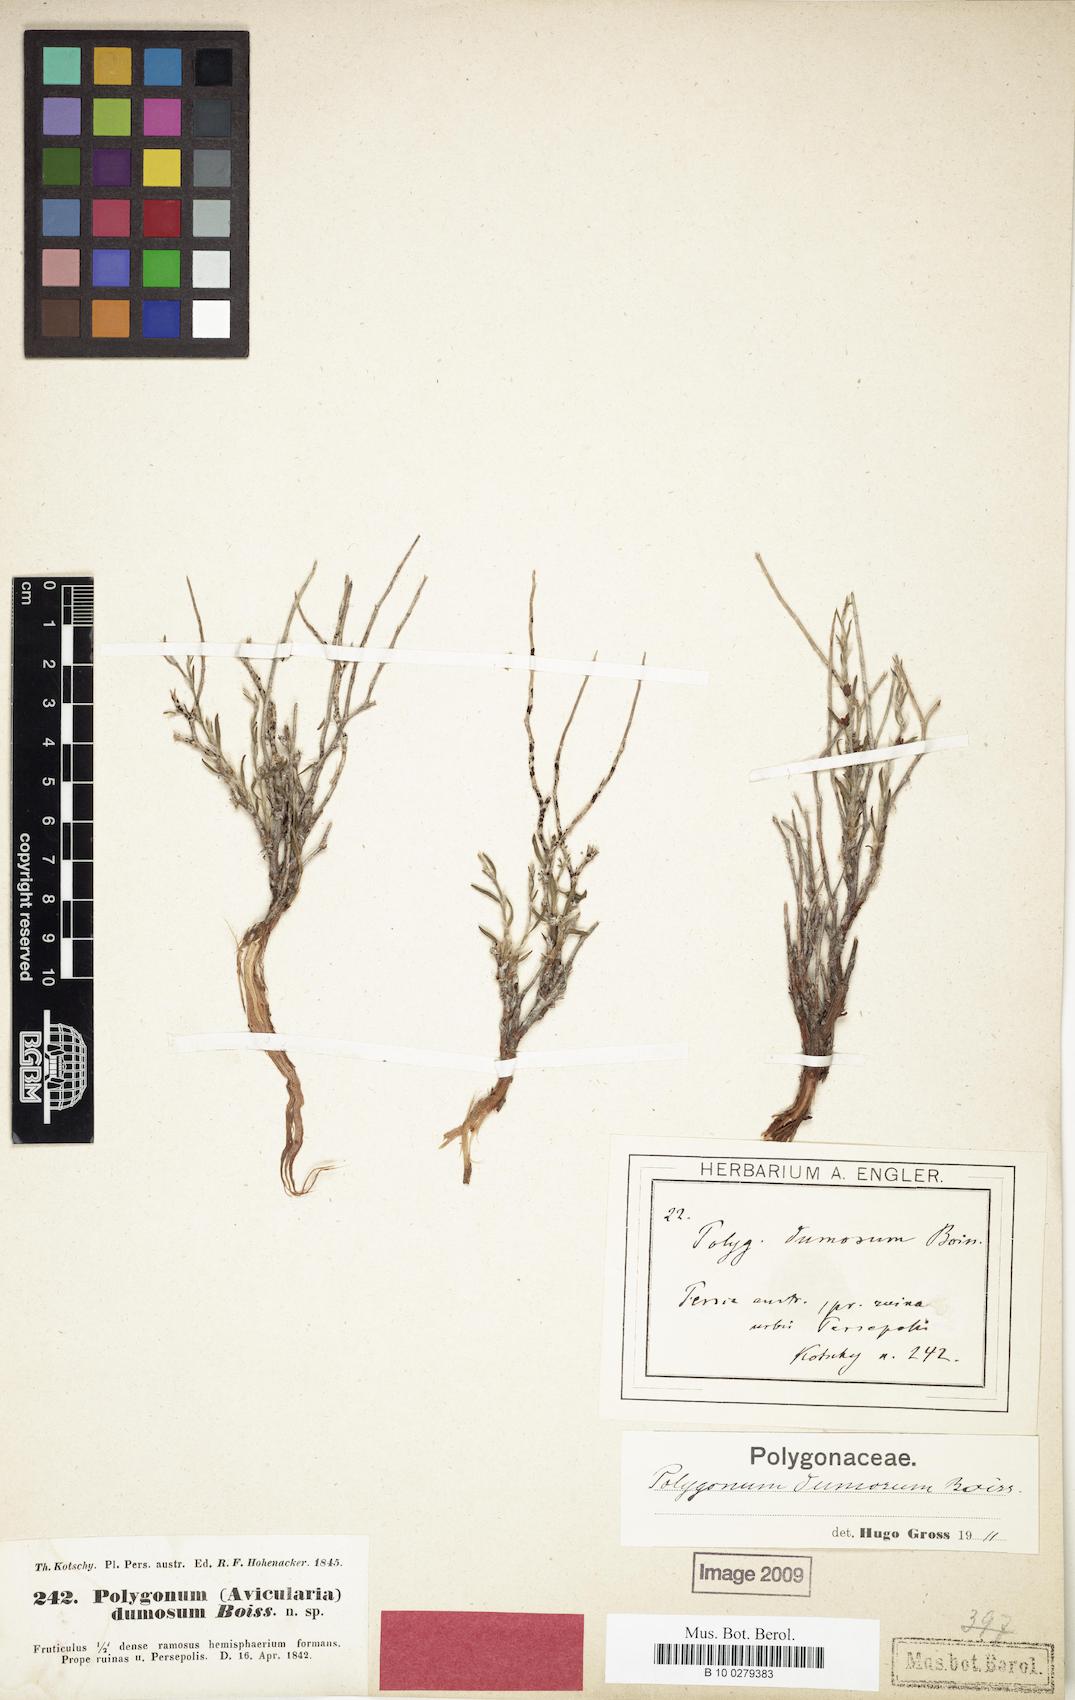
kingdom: Plantae
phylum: Tracheophyta
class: Magnoliopsida
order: Caryophyllales
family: Polygonaceae
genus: Atraphaxis
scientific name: Atraphaxis dumosa
